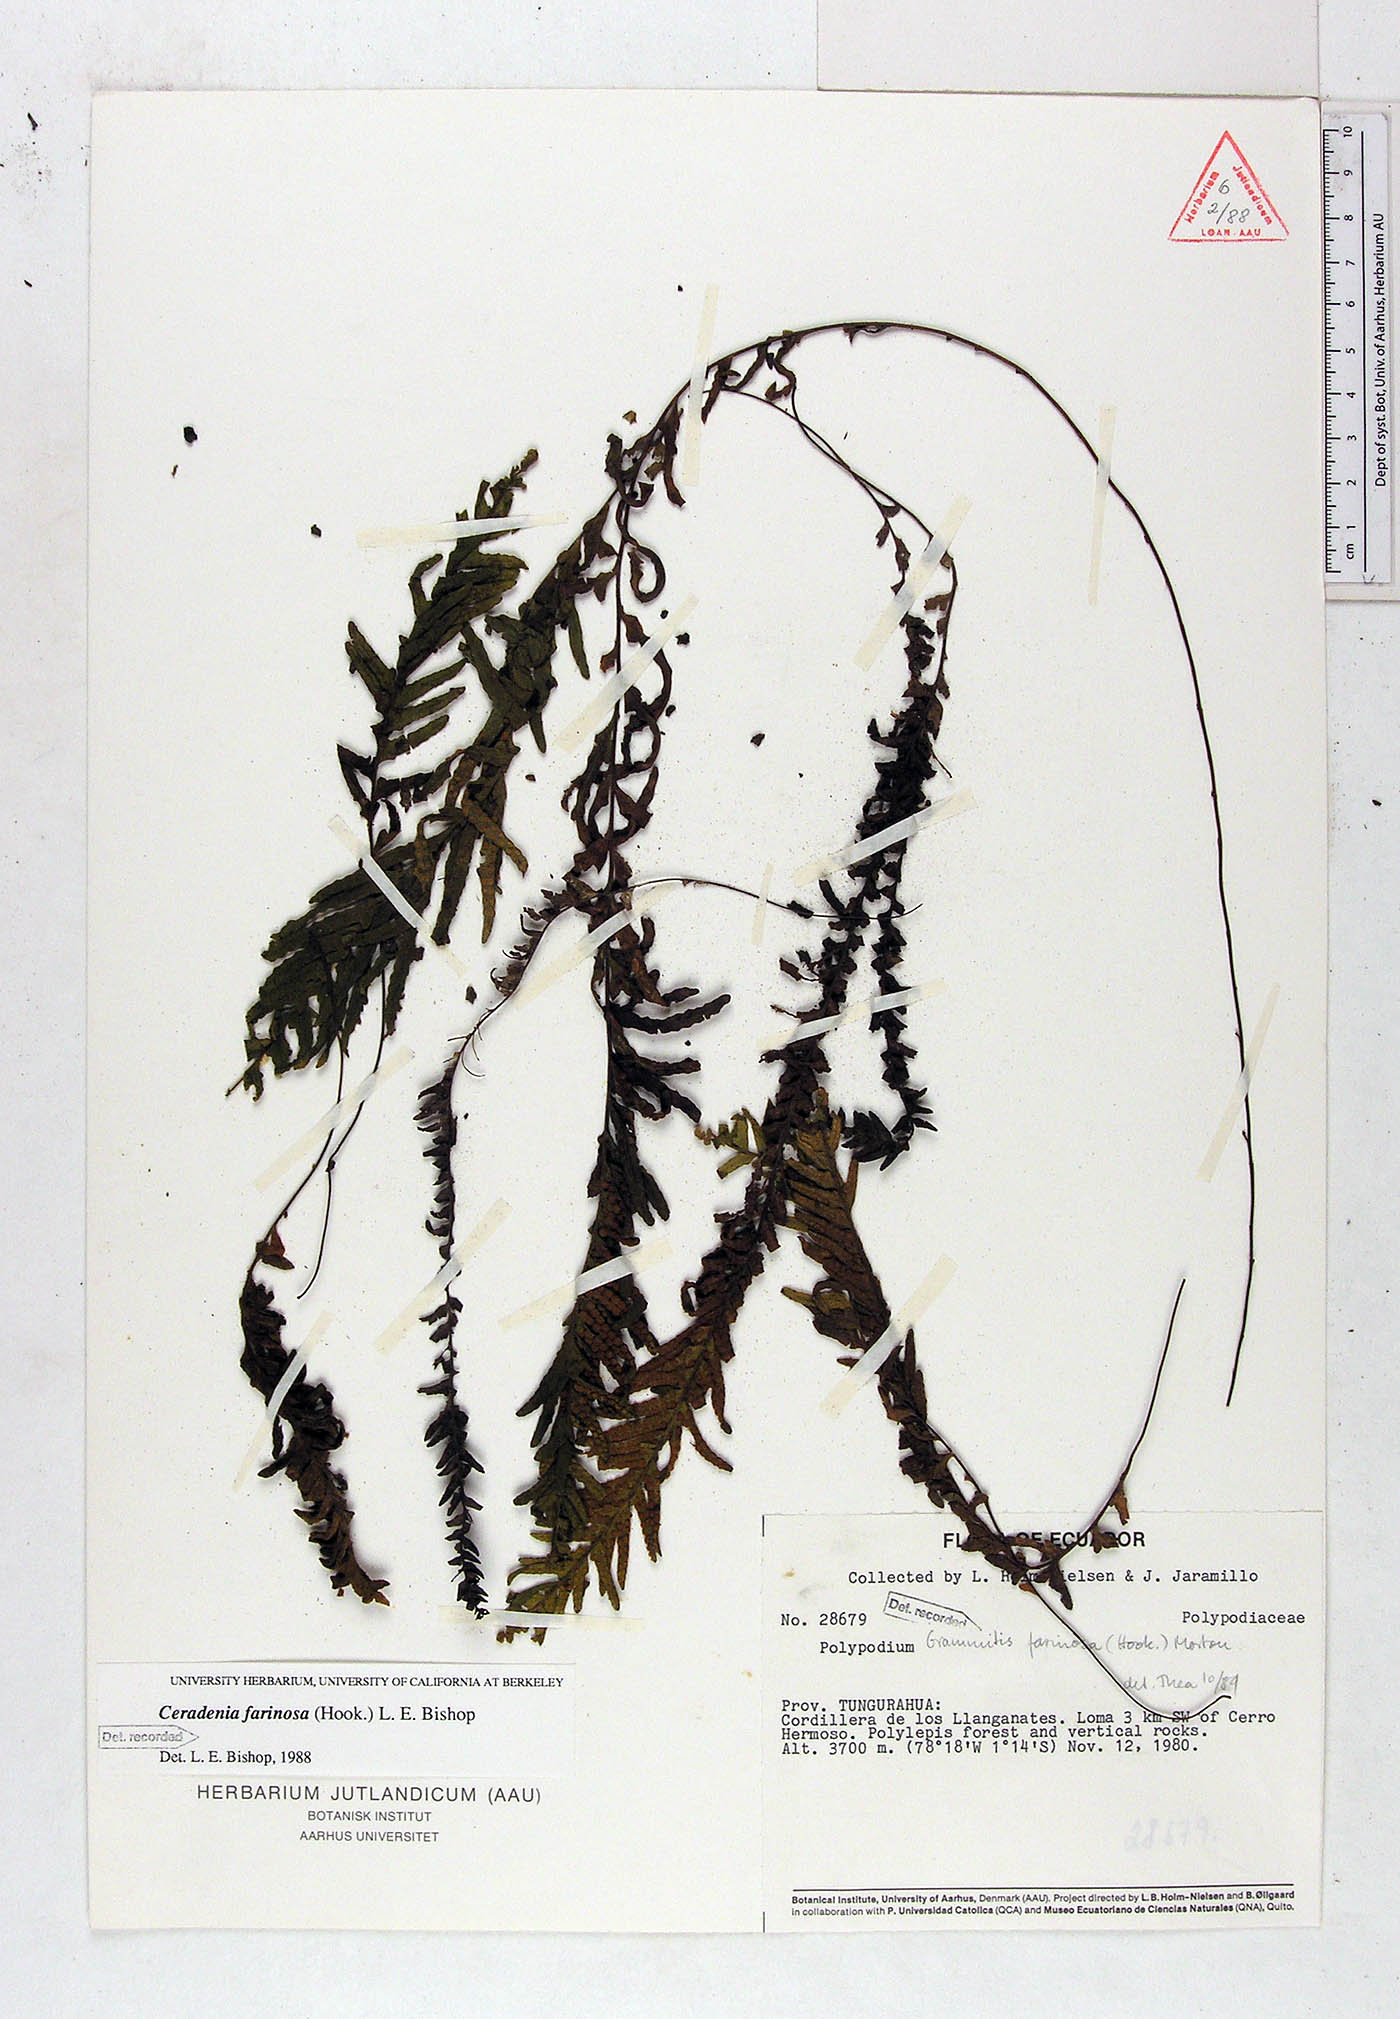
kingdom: Plantae
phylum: Tracheophyta
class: Polypodiopsida
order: Polypodiales
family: Polypodiaceae
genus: Ceradenia
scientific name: Ceradenia farinosa
